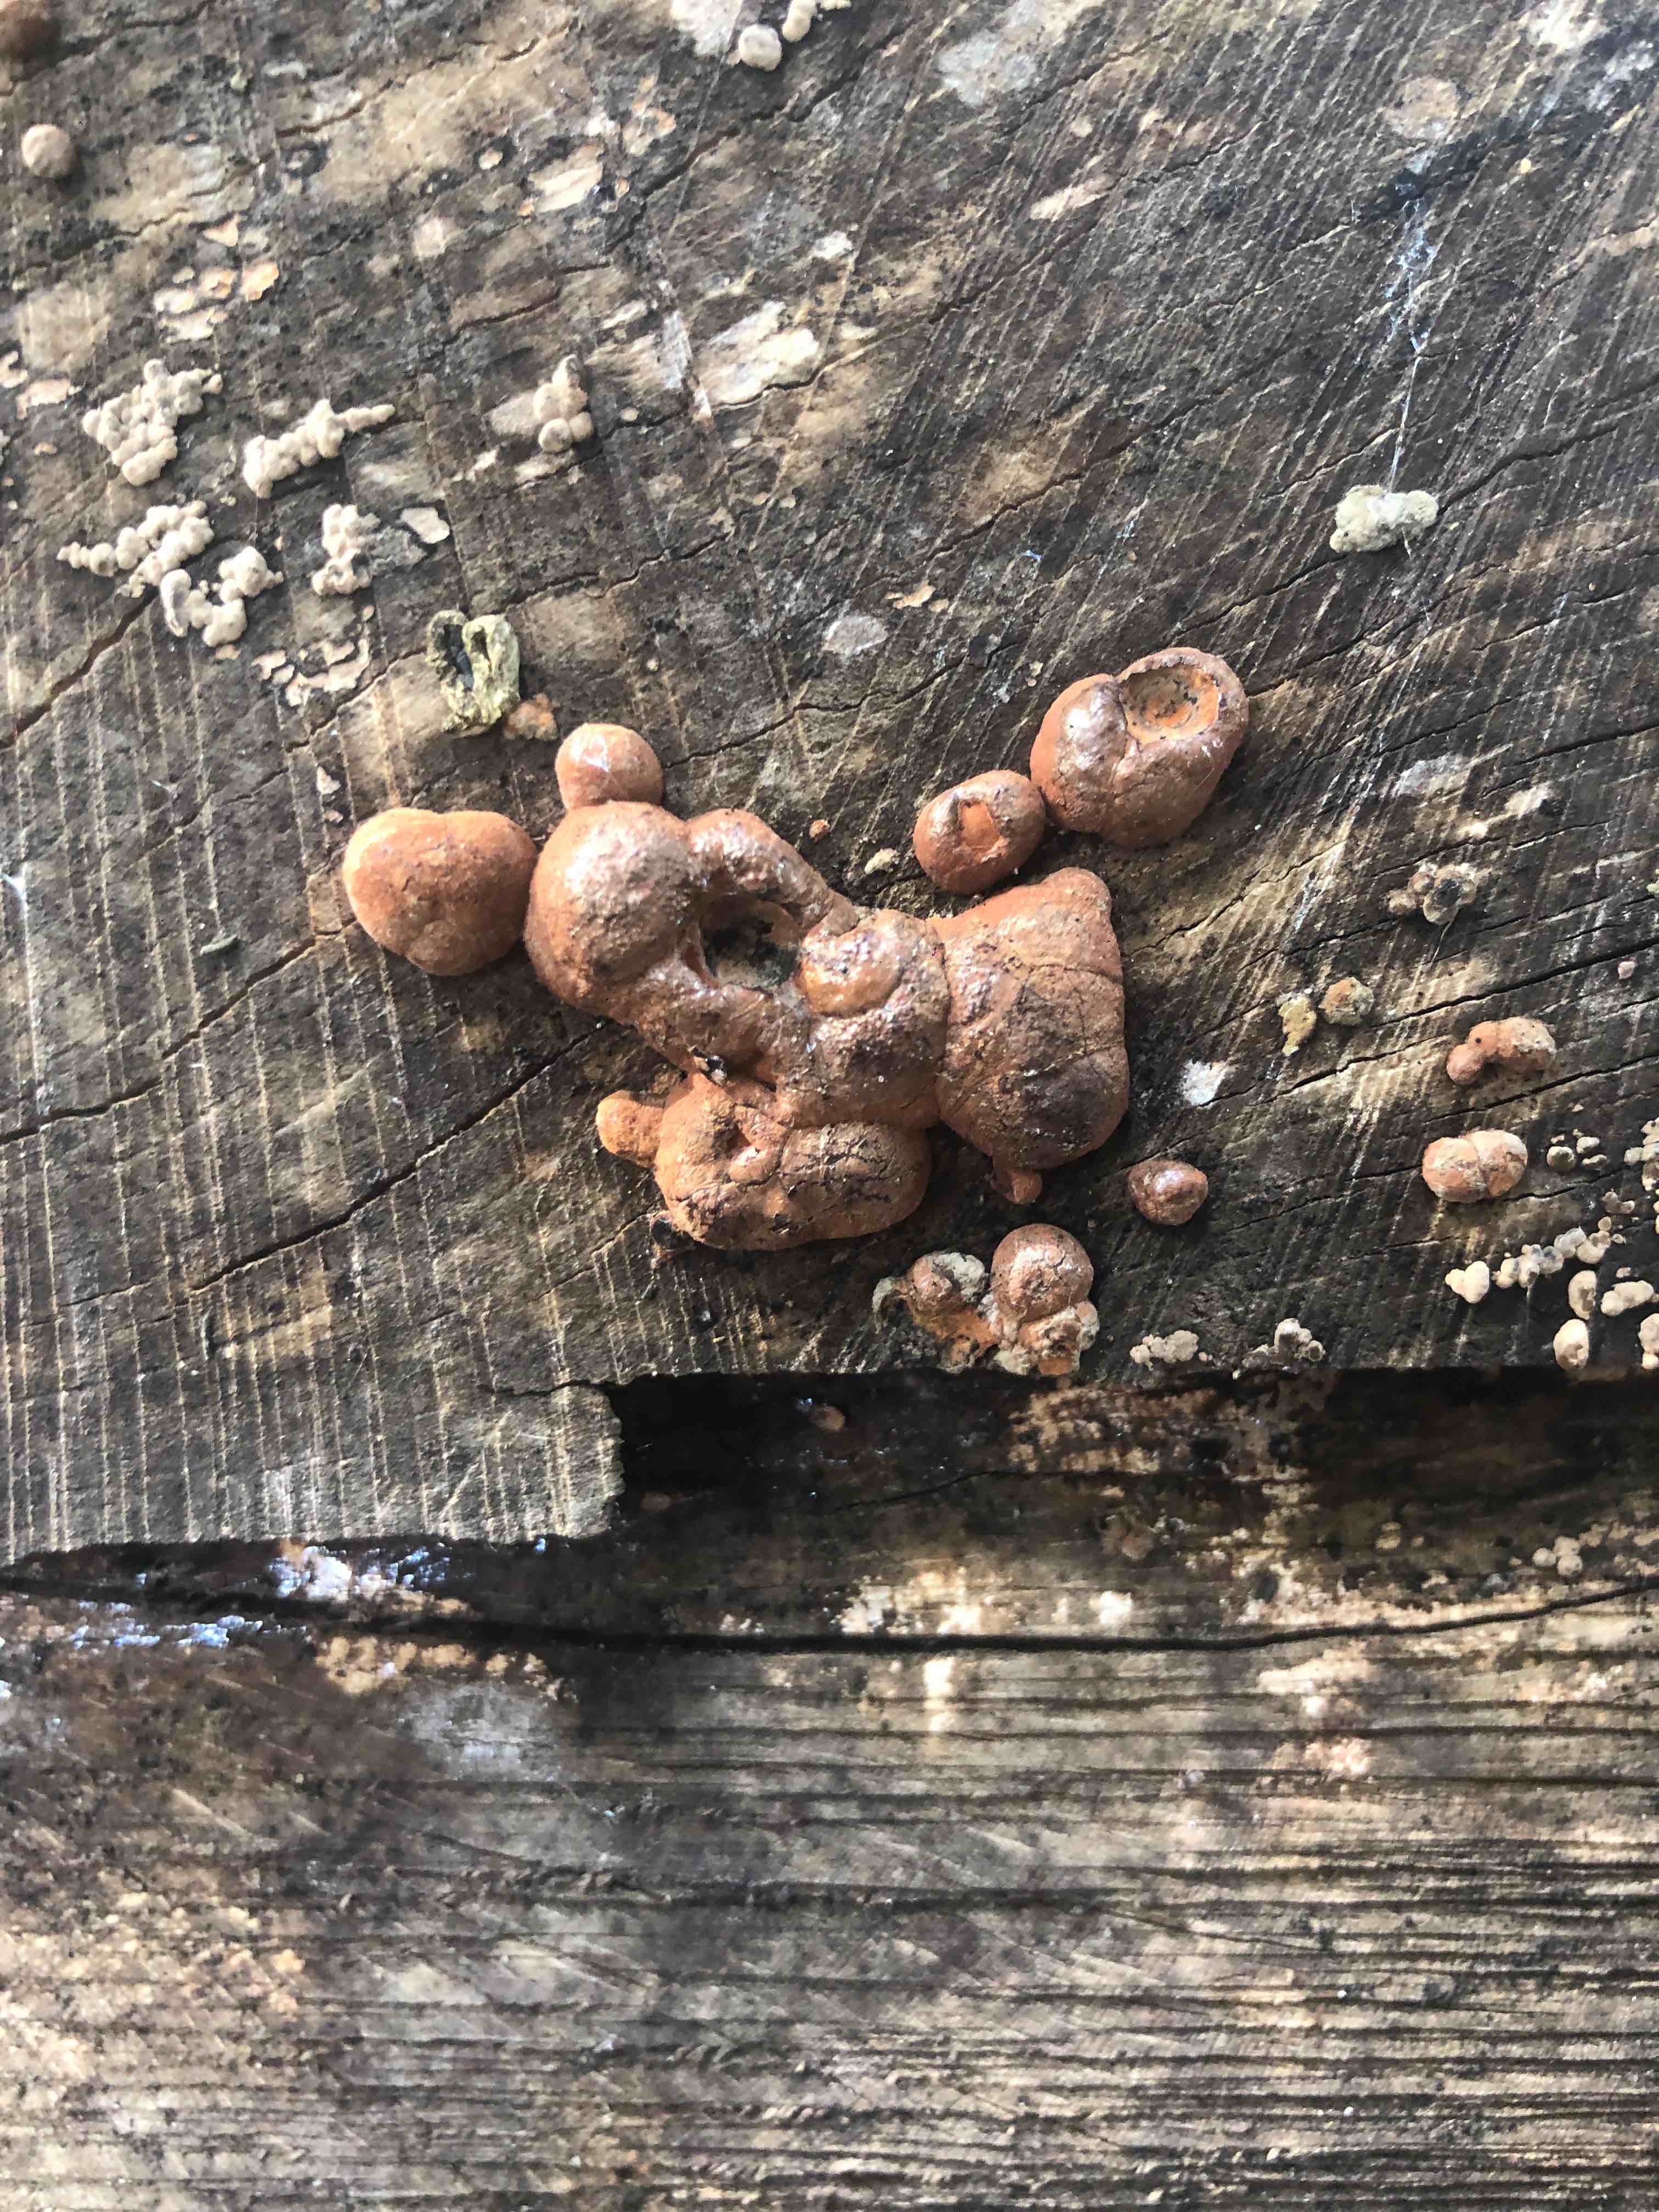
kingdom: Fungi
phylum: Ascomycota
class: Sordariomycetes
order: Xylariales
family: Hypoxylaceae
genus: Hypoxylon
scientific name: Hypoxylon fragiforme
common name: kuljordbær
